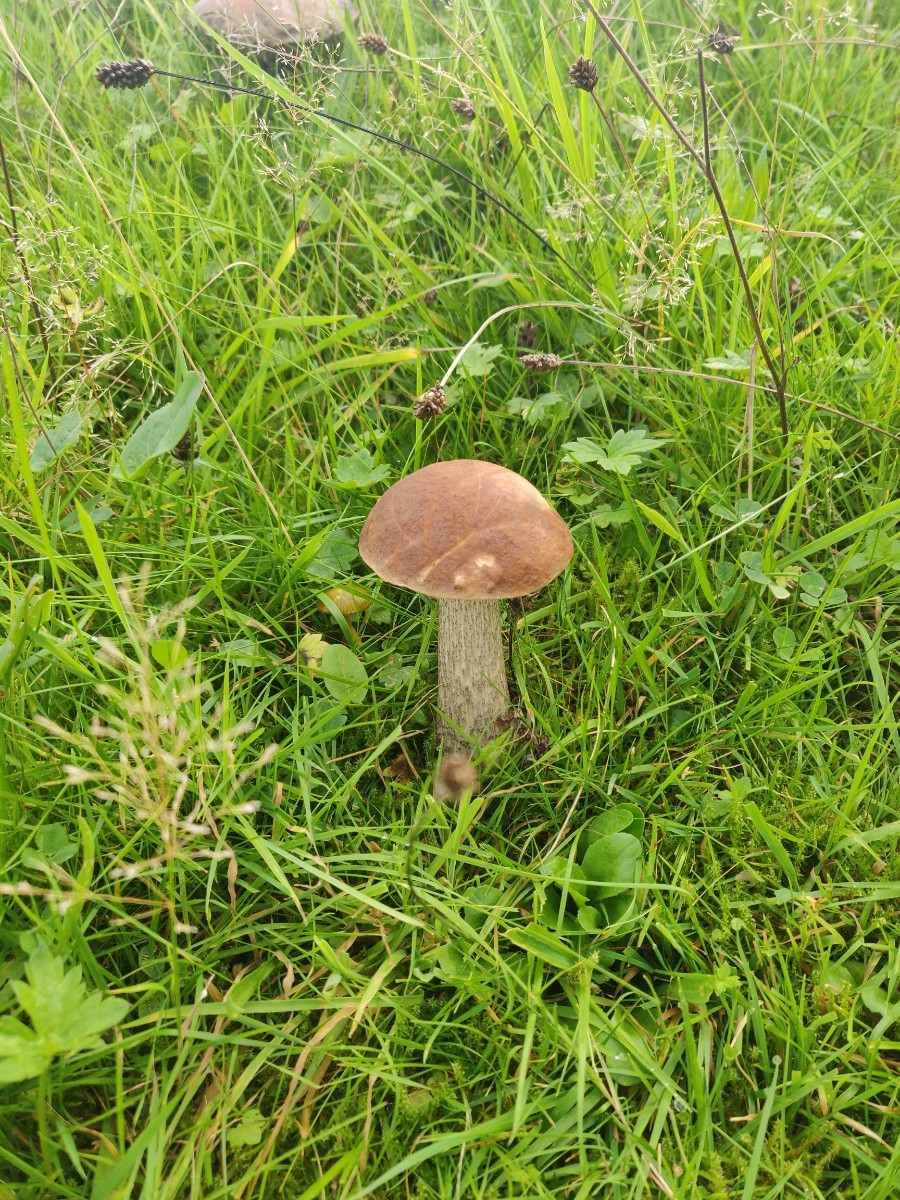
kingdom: Fungi
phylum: Basidiomycota
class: Agaricomycetes
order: Boletales
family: Boletaceae
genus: Leccinum
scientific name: Leccinum
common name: skælrørhat
